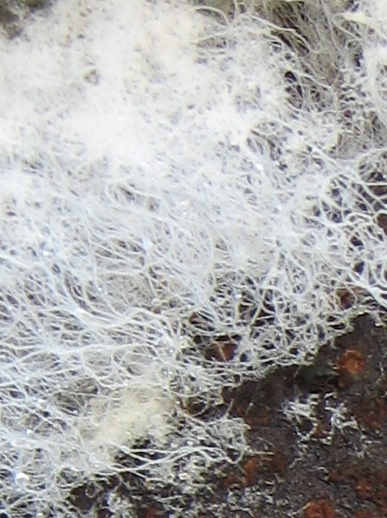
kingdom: Fungi
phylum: Mucoromycota
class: Mucoromycetes
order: Mucorales
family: Rhizopodaceae
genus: Syzygites
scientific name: Syzygites megalocarpus
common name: nissenål
